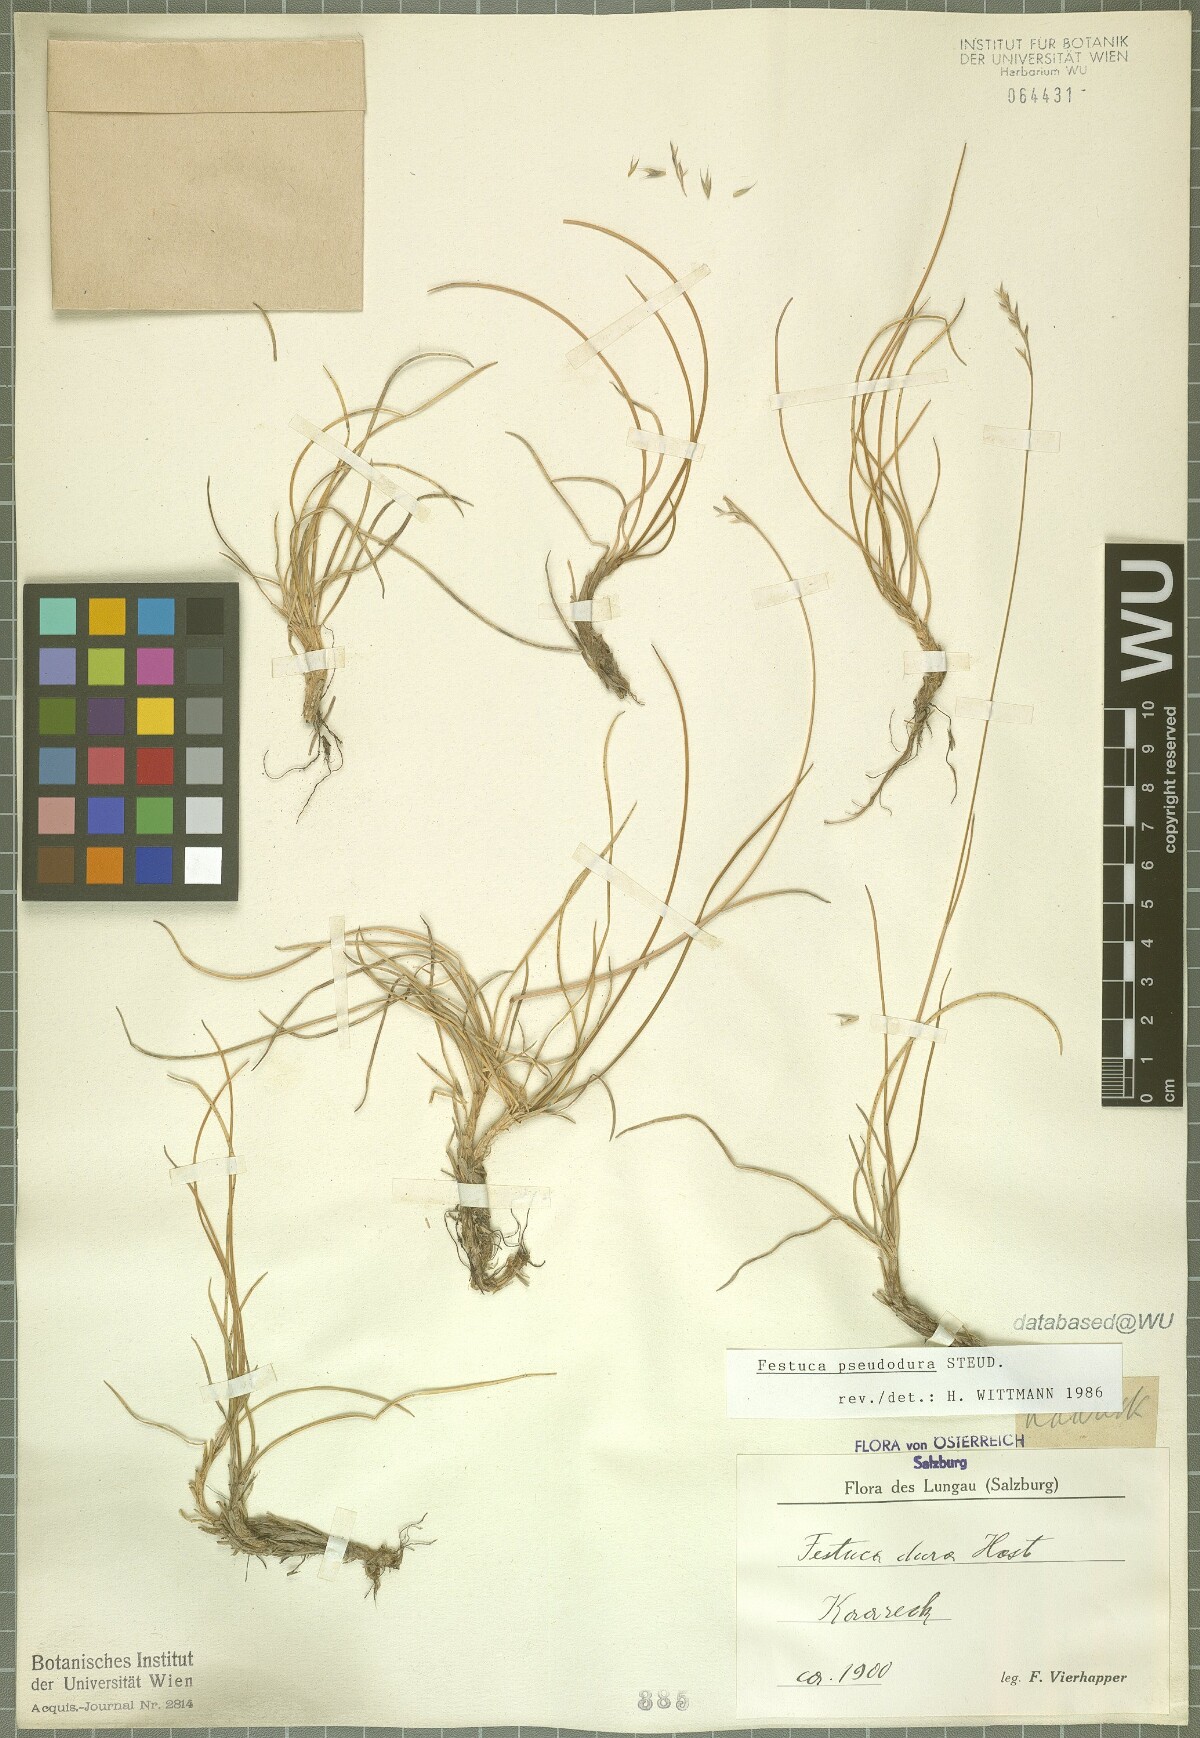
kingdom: Plantae
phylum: Tracheophyta
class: Liliopsida
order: Poales
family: Poaceae
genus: Festuca
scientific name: Festuca pseudodura
